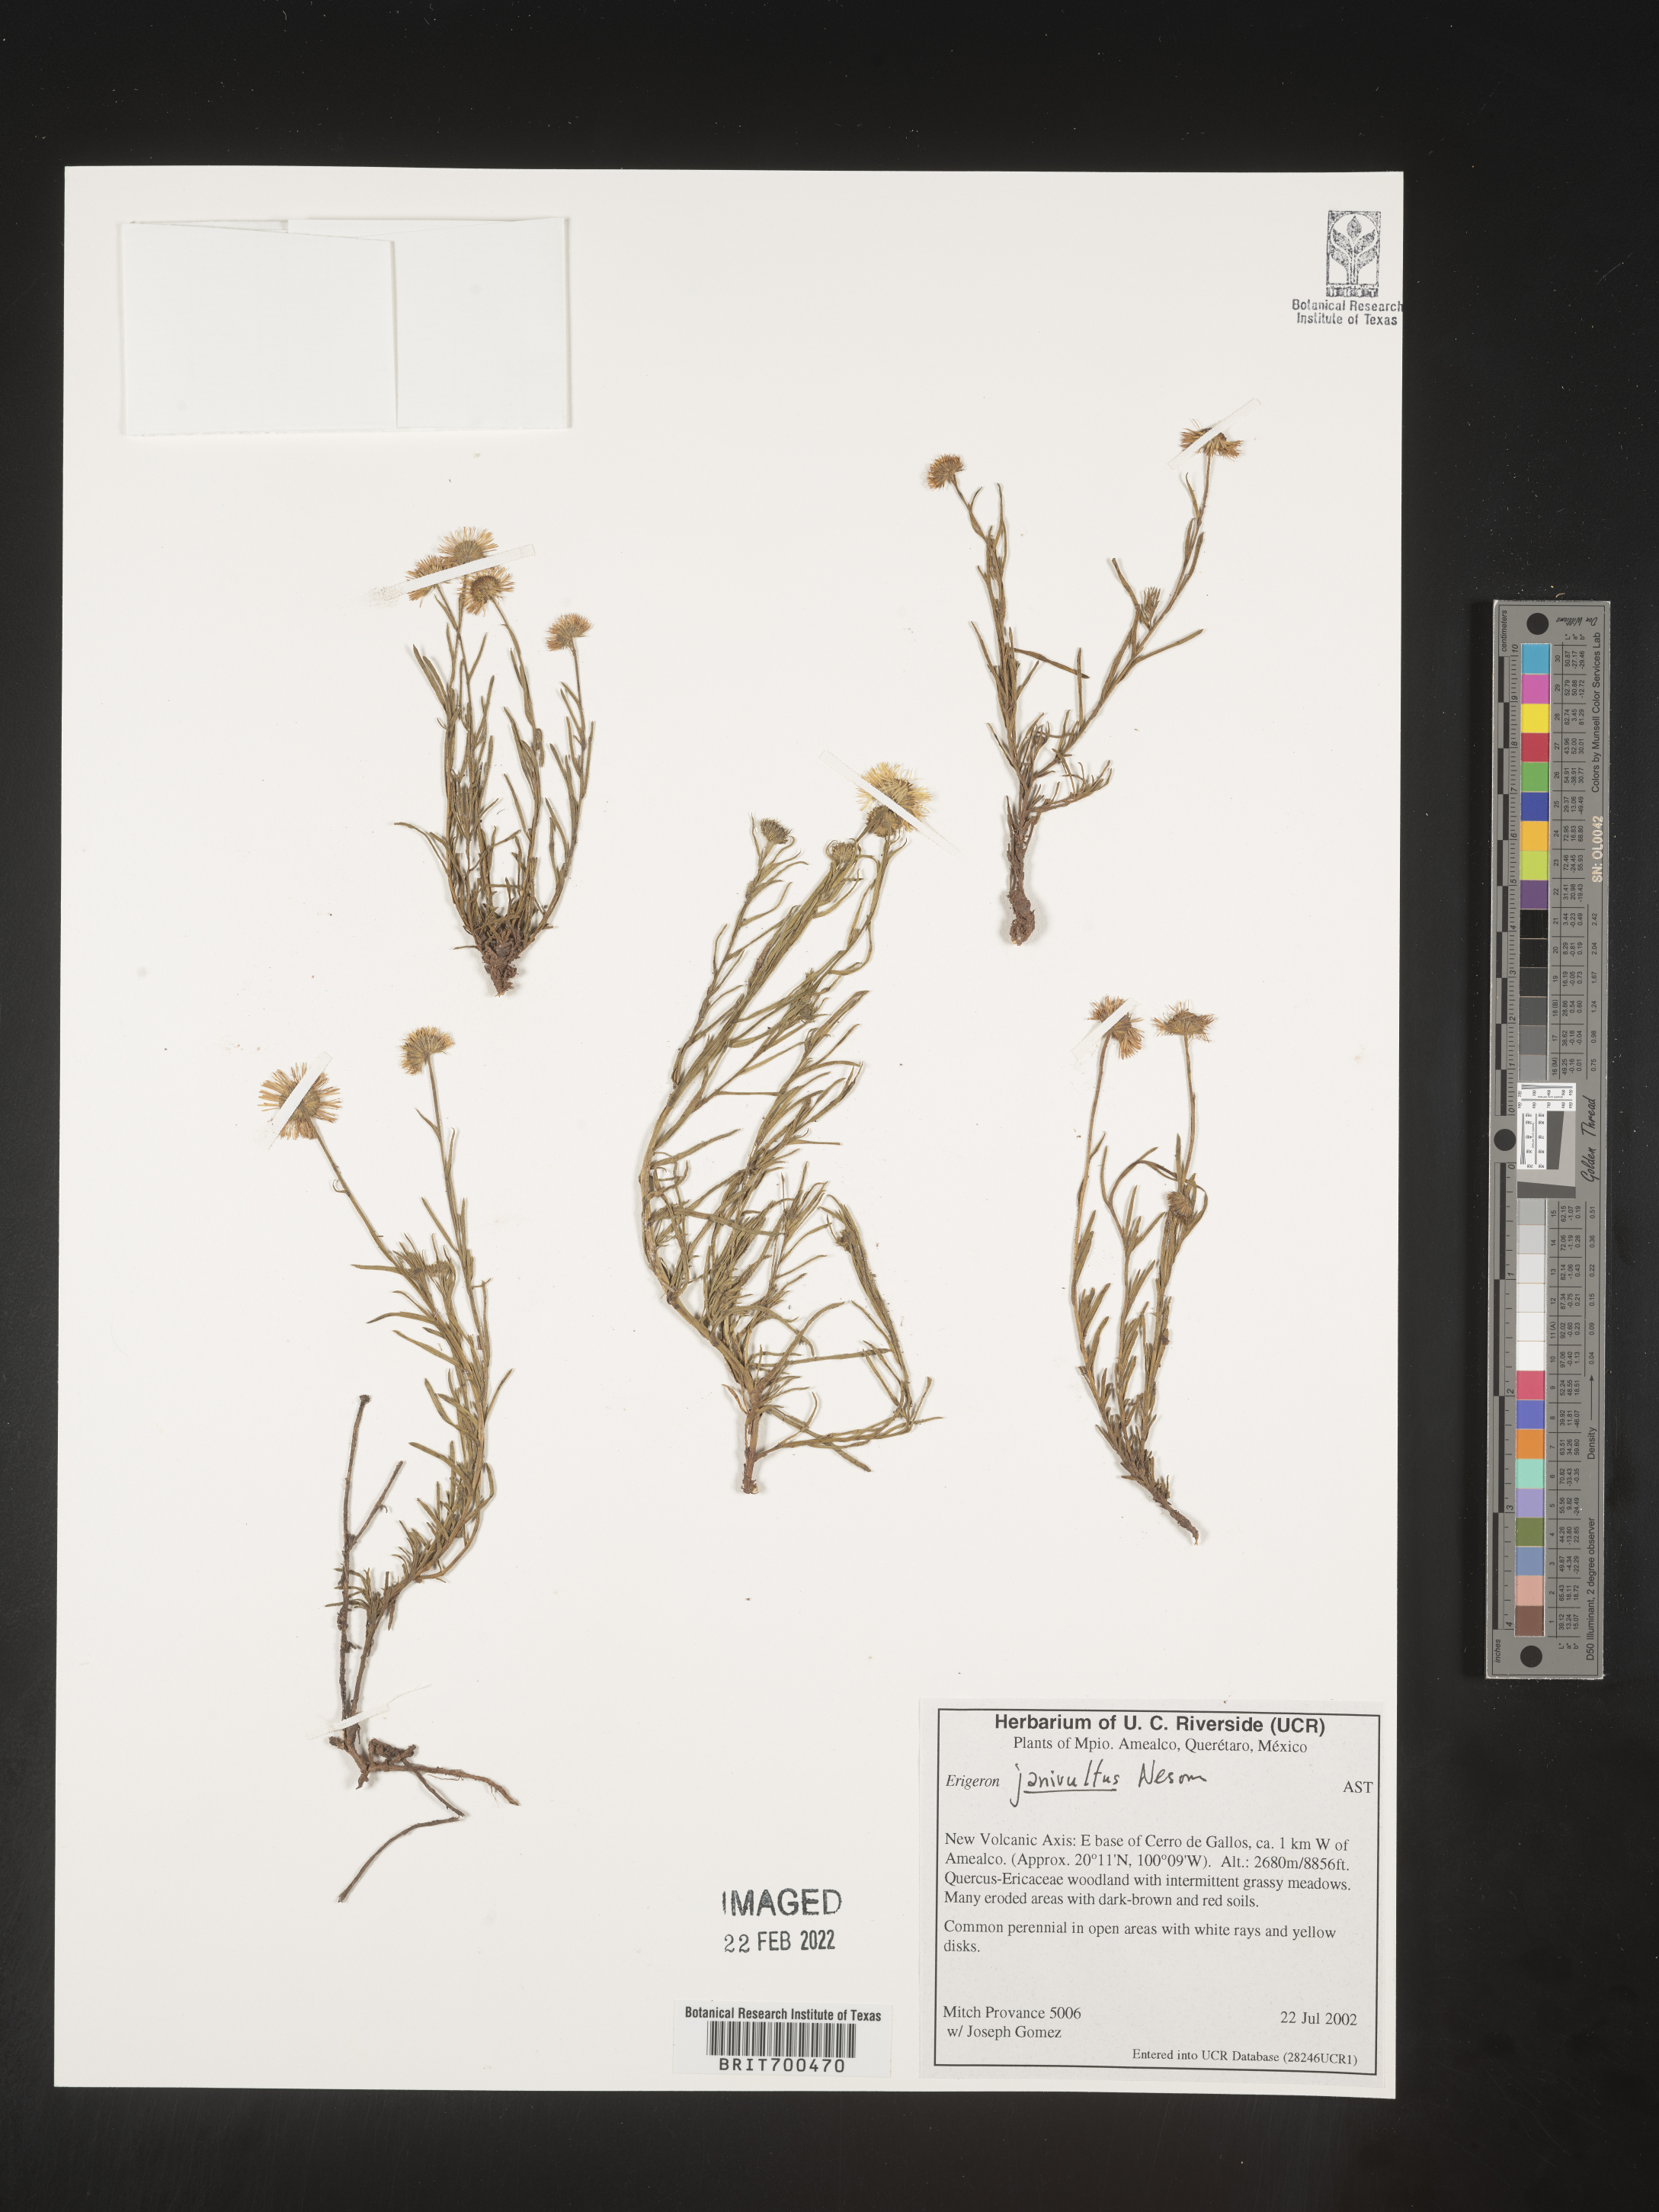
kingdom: Plantae
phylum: Tracheophyta
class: Magnoliopsida
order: Asterales
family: Asteraceae
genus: Erigeron
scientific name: Erigeron
